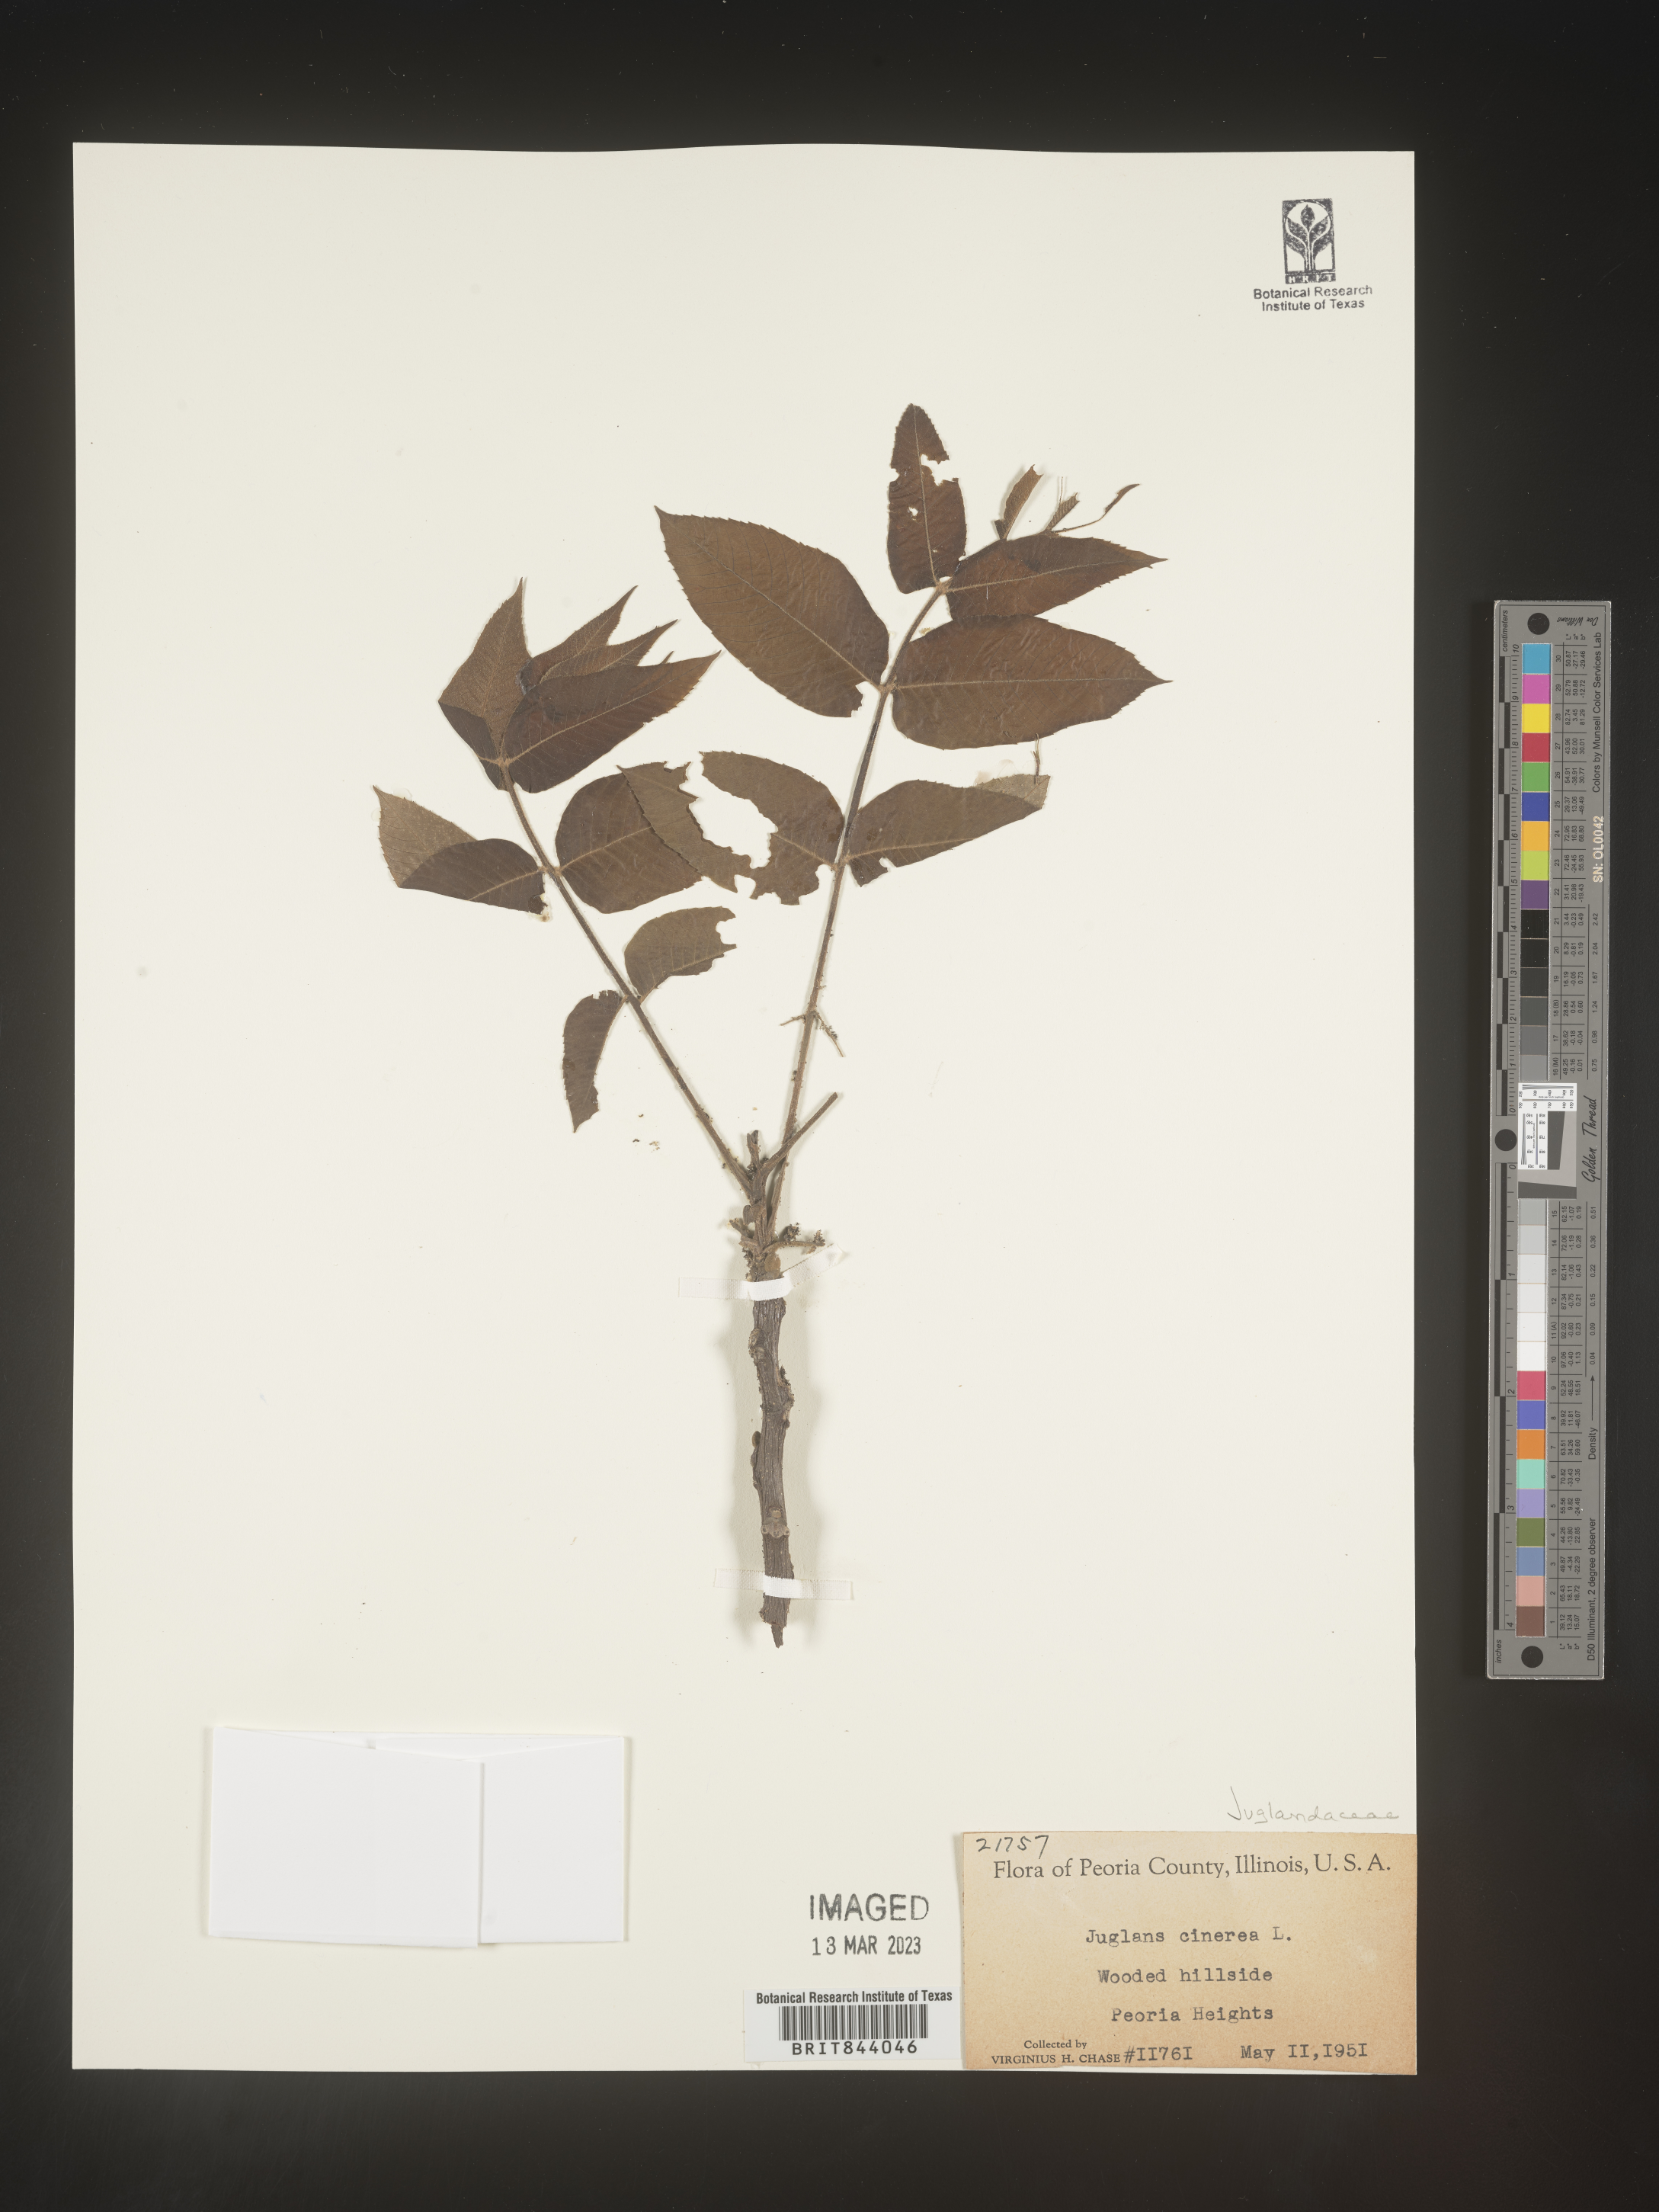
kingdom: Plantae
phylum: Tracheophyta
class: Magnoliopsida
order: Fagales
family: Juglandaceae
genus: Juglans
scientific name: Juglans cinerea
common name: Butternut
